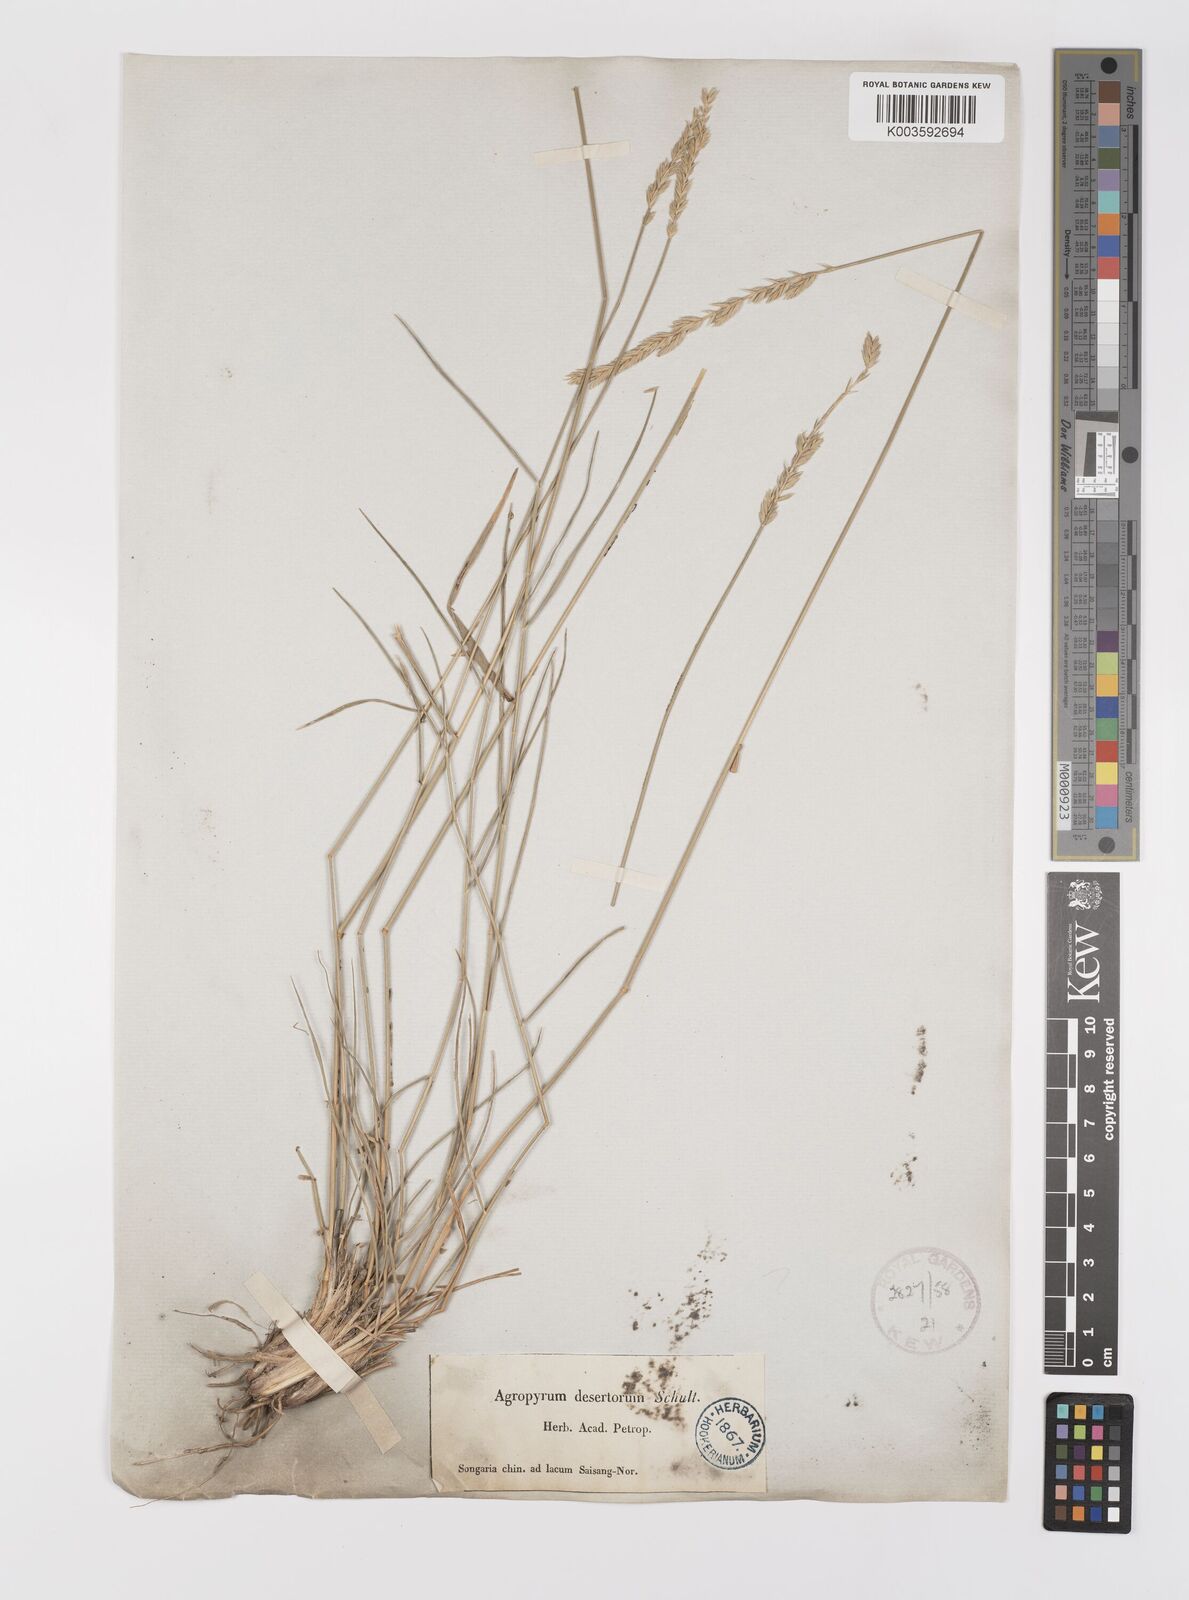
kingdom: Plantae
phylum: Tracheophyta
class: Liliopsida
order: Poales
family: Poaceae
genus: Agropyron
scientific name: Agropyron desertorum
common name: Desert wheatgrass
